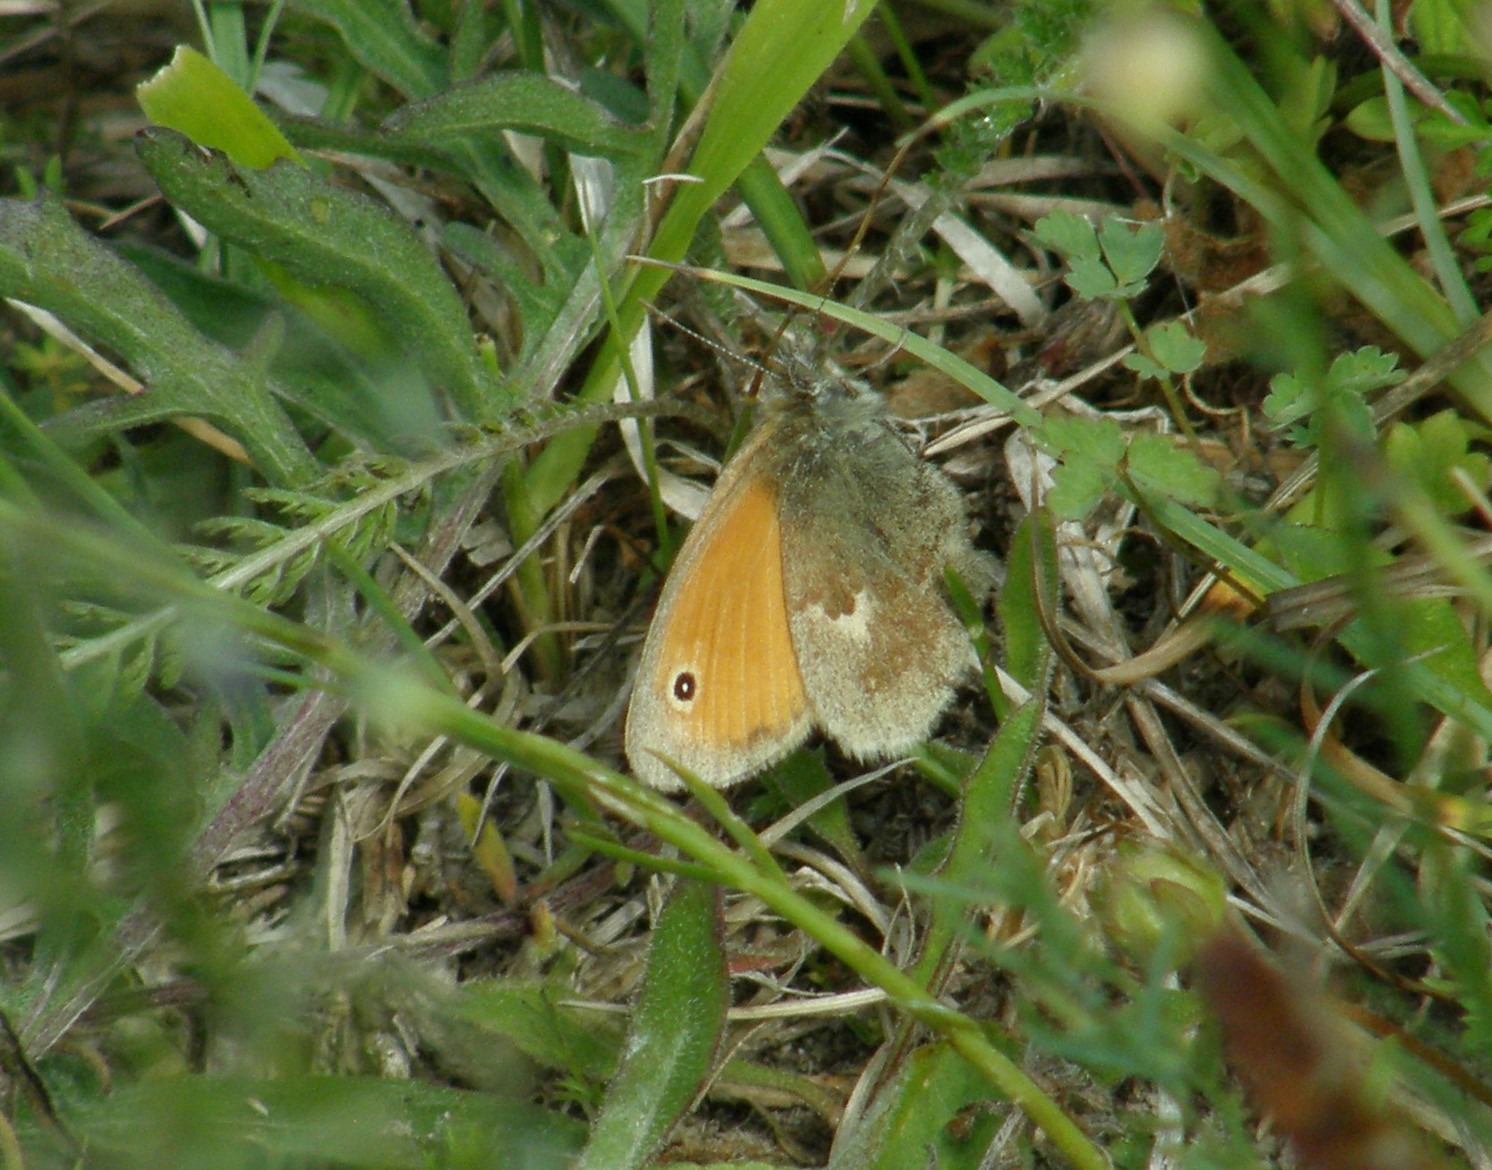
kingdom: Animalia
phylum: Arthropoda
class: Insecta
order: Lepidoptera
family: Nymphalidae
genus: Coenonympha
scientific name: Coenonympha pamphilus
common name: Okkergul randøje
